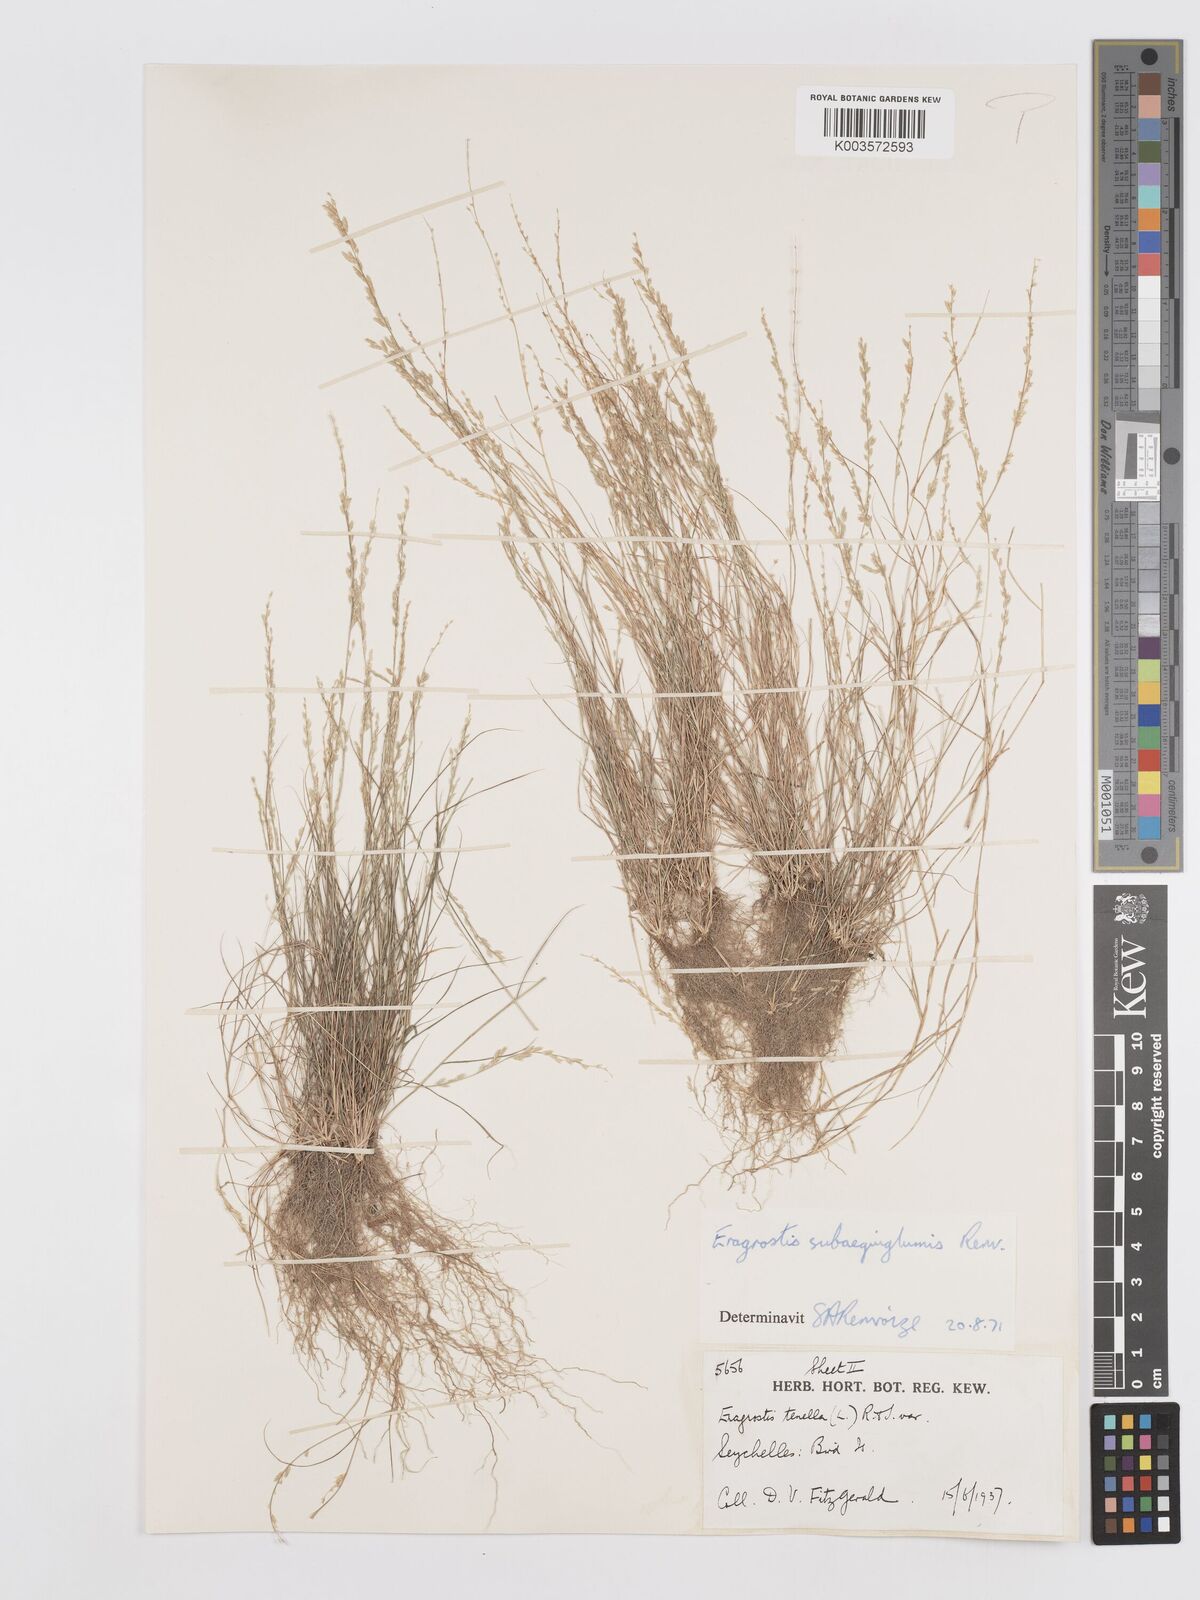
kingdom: Plantae
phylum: Tracheophyta
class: Liliopsida
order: Poales
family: Poaceae
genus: Eragrostis
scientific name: Eragrostis subaequiglumis
